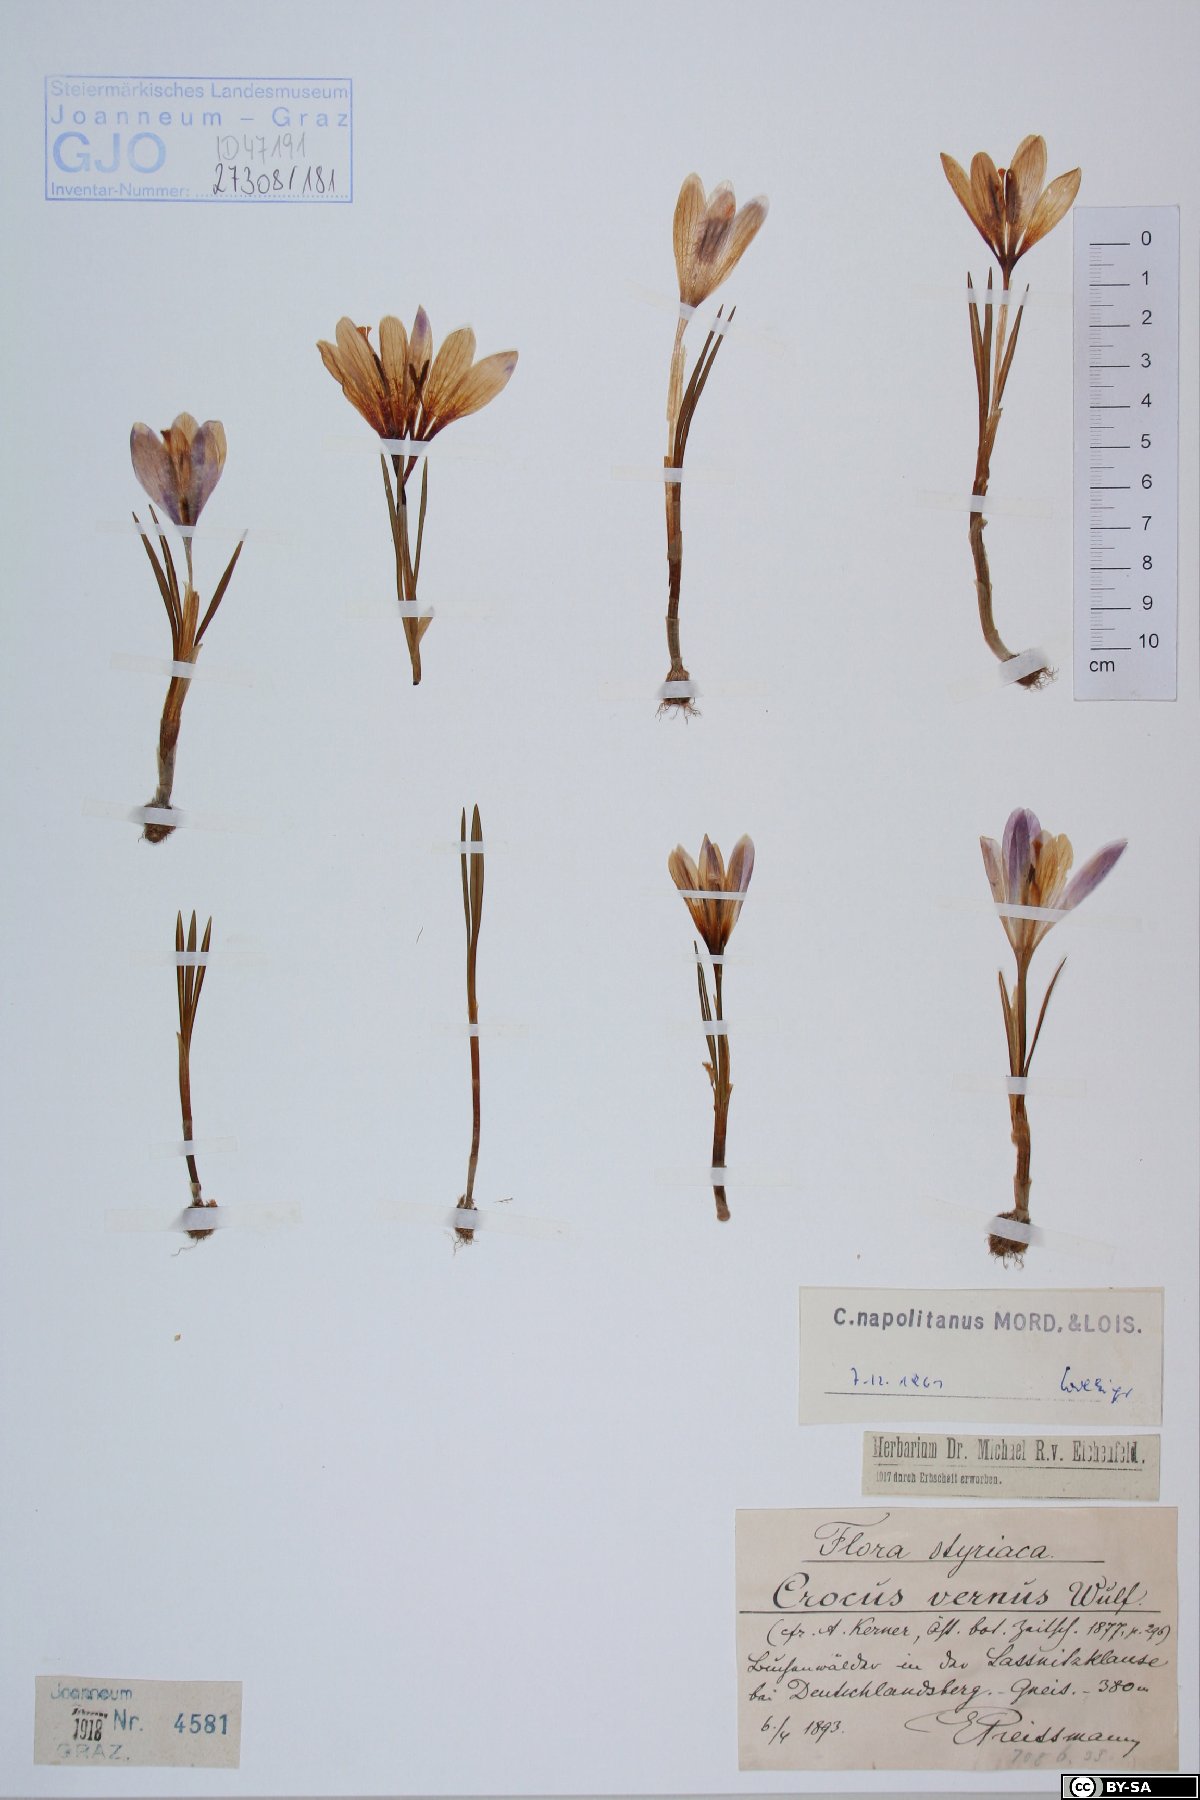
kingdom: Plantae
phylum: Tracheophyta
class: Liliopsida
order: Asparagales
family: Iridaceae
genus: Crocus
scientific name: Crocus vernus
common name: Spring crocus
